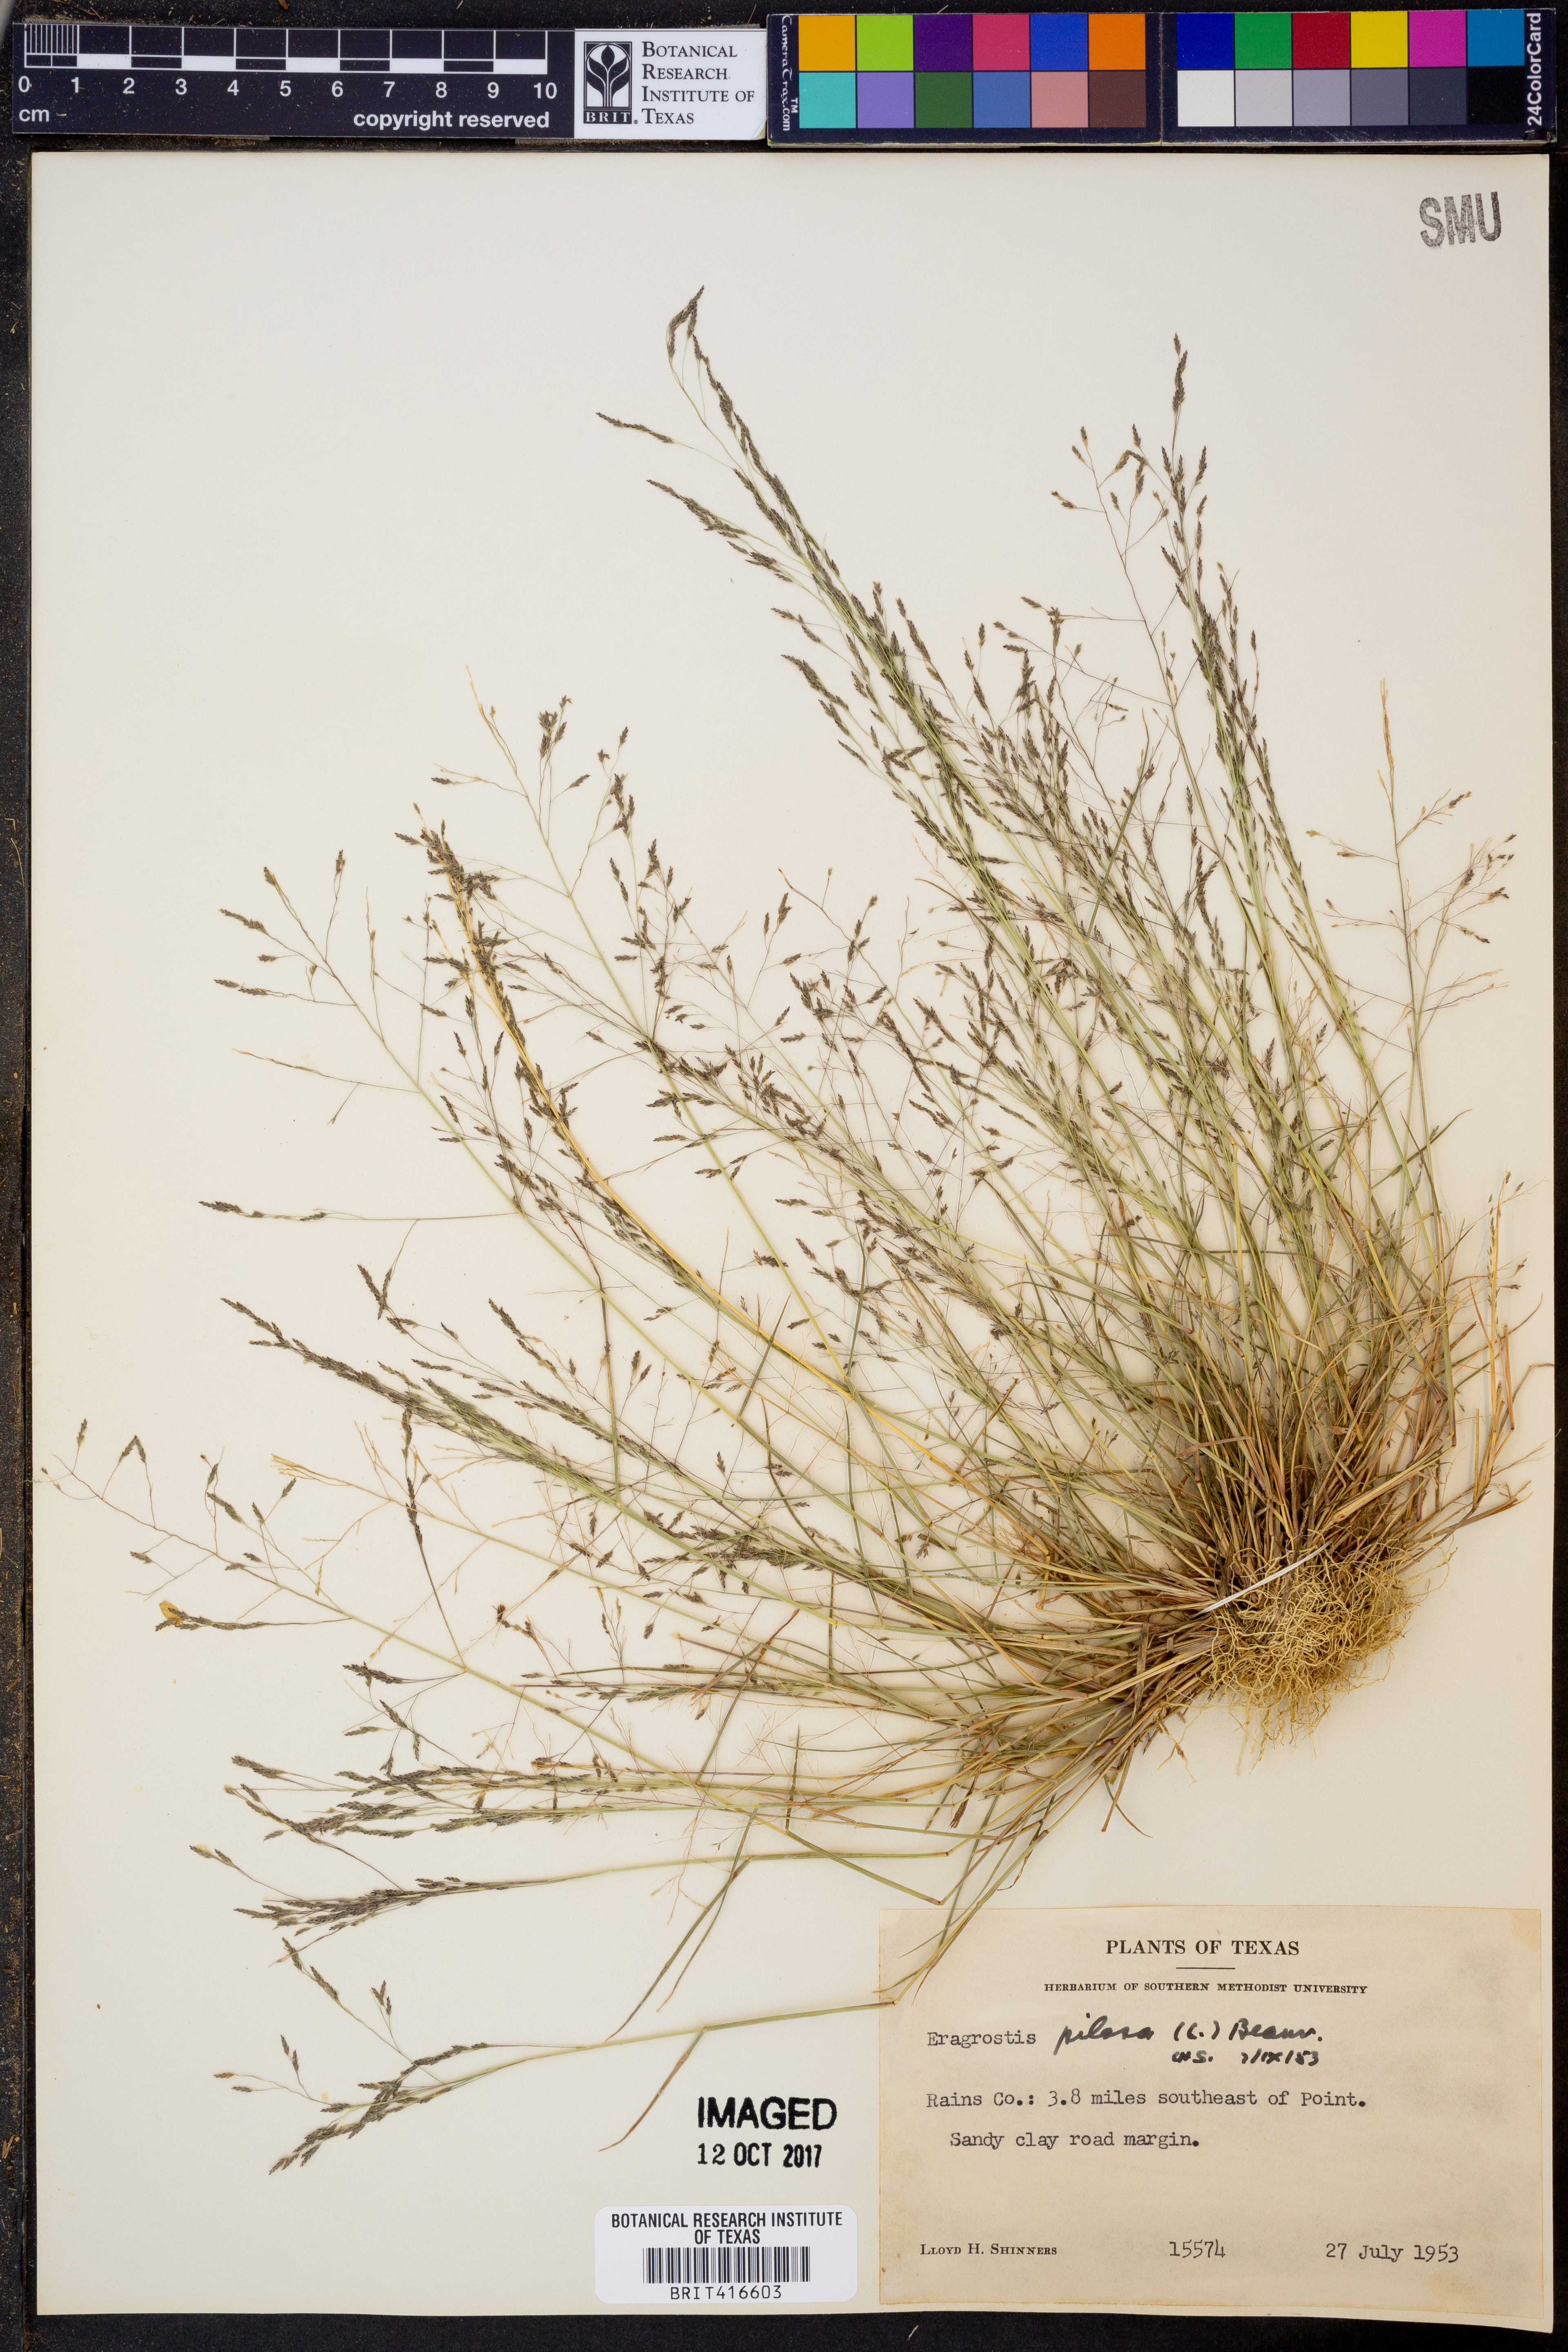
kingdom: Plantae
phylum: Tracheophyta
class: Liliopsida
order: Poales
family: Poaceae
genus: Eragrostis
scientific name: Eragrostis pilosa
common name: Indian lovegrass
